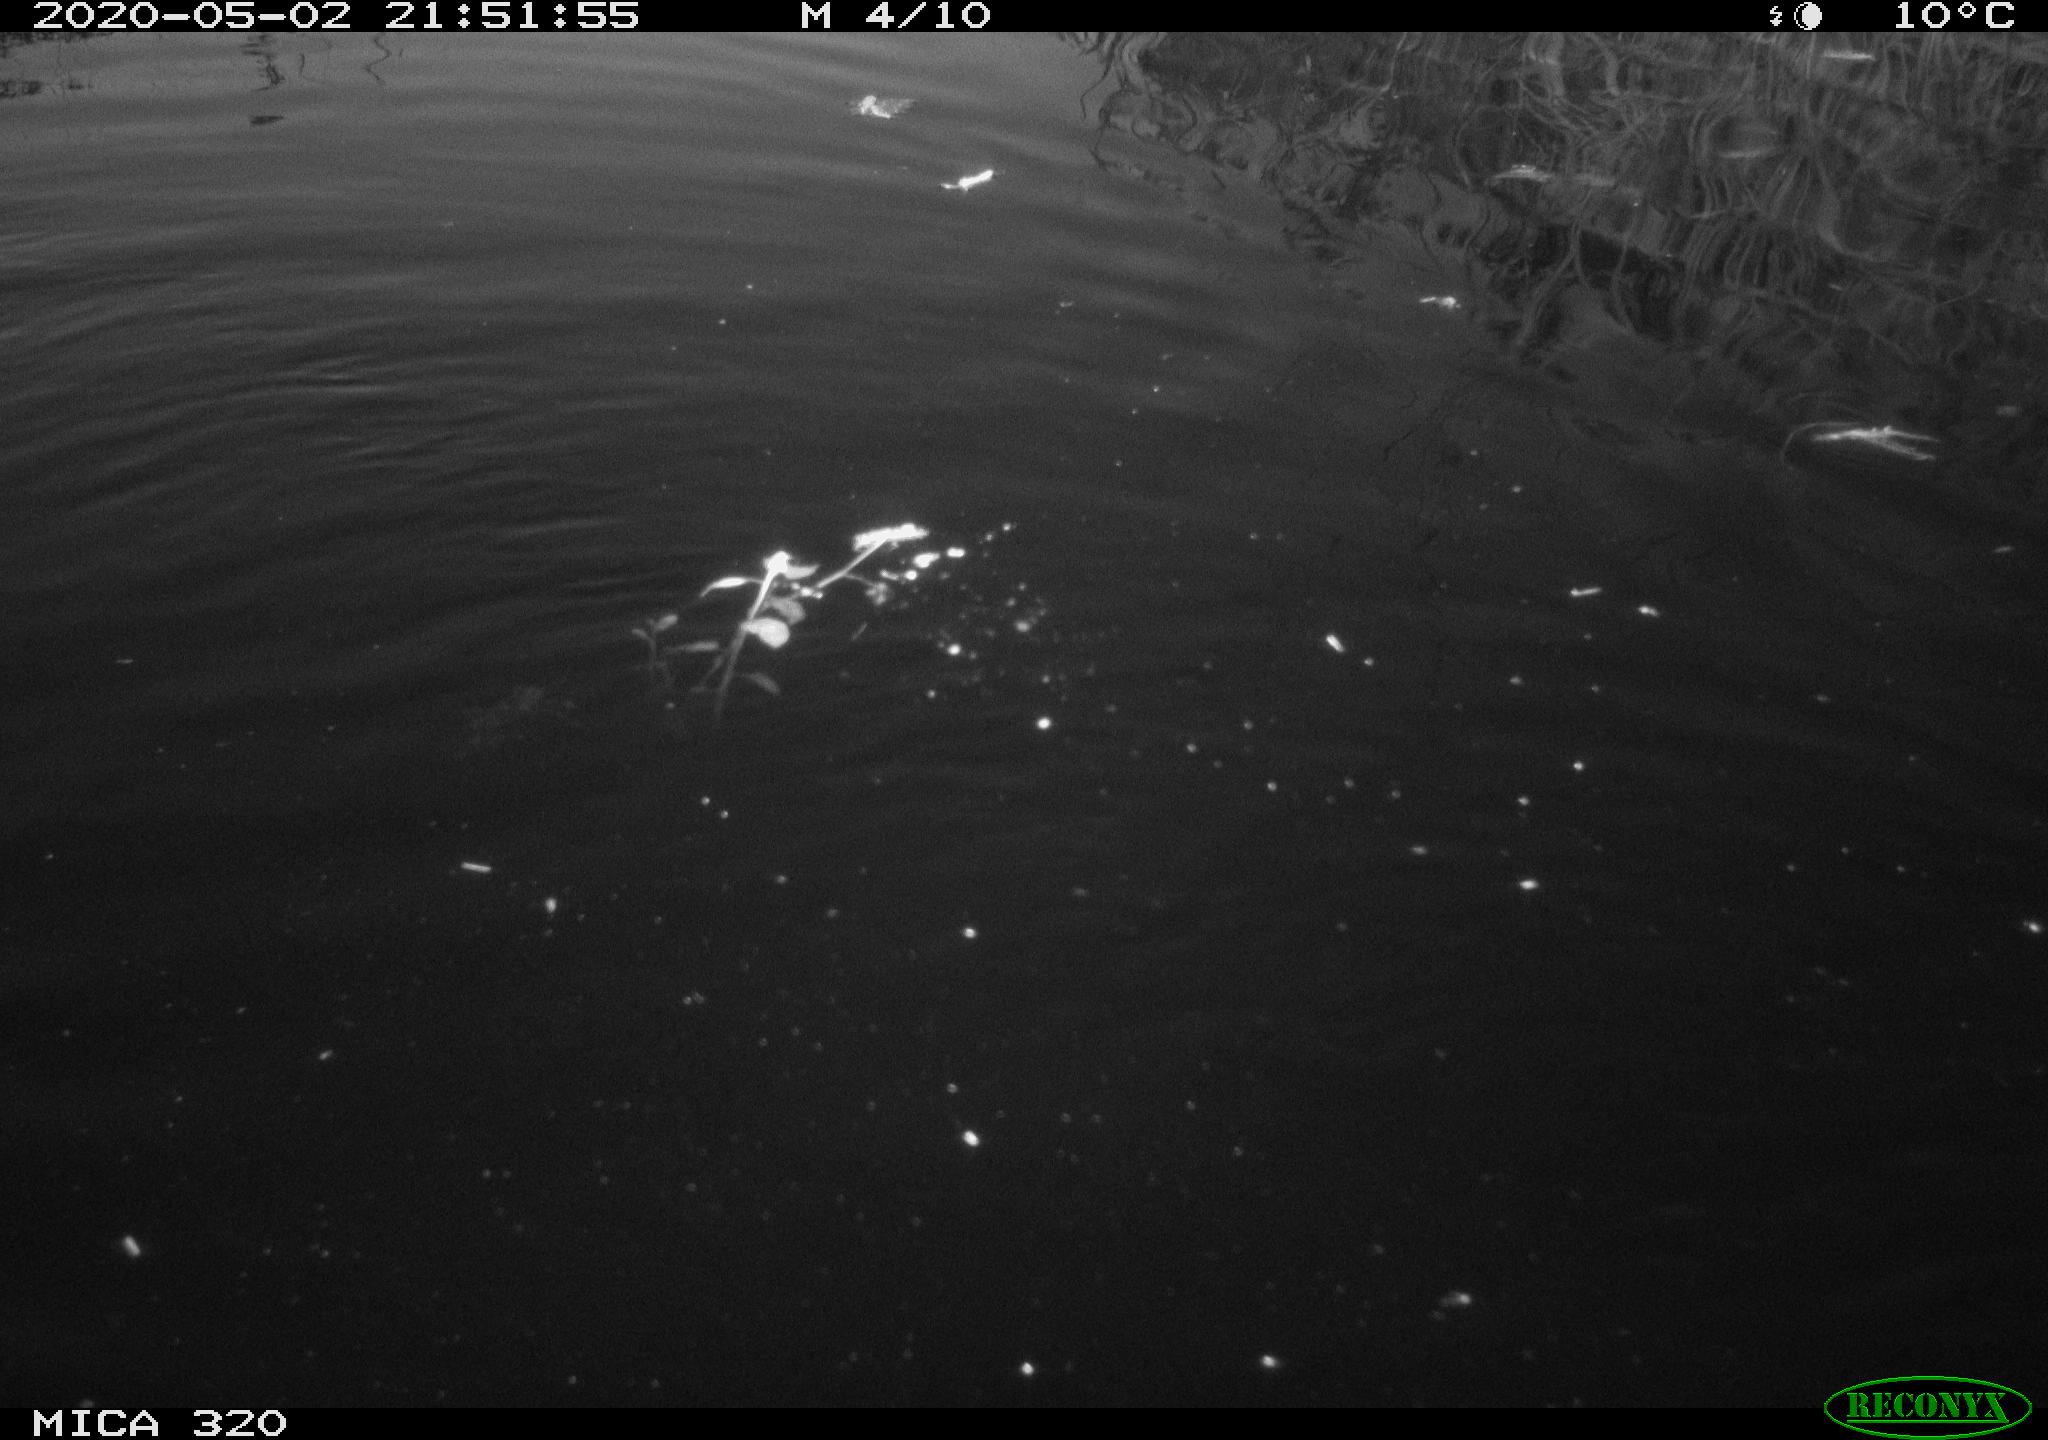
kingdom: Animalia
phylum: Chordata
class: Aves
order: Anseriformes
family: Anatidae
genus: Anas
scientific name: Anas platyrhynchos
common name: Mallard
